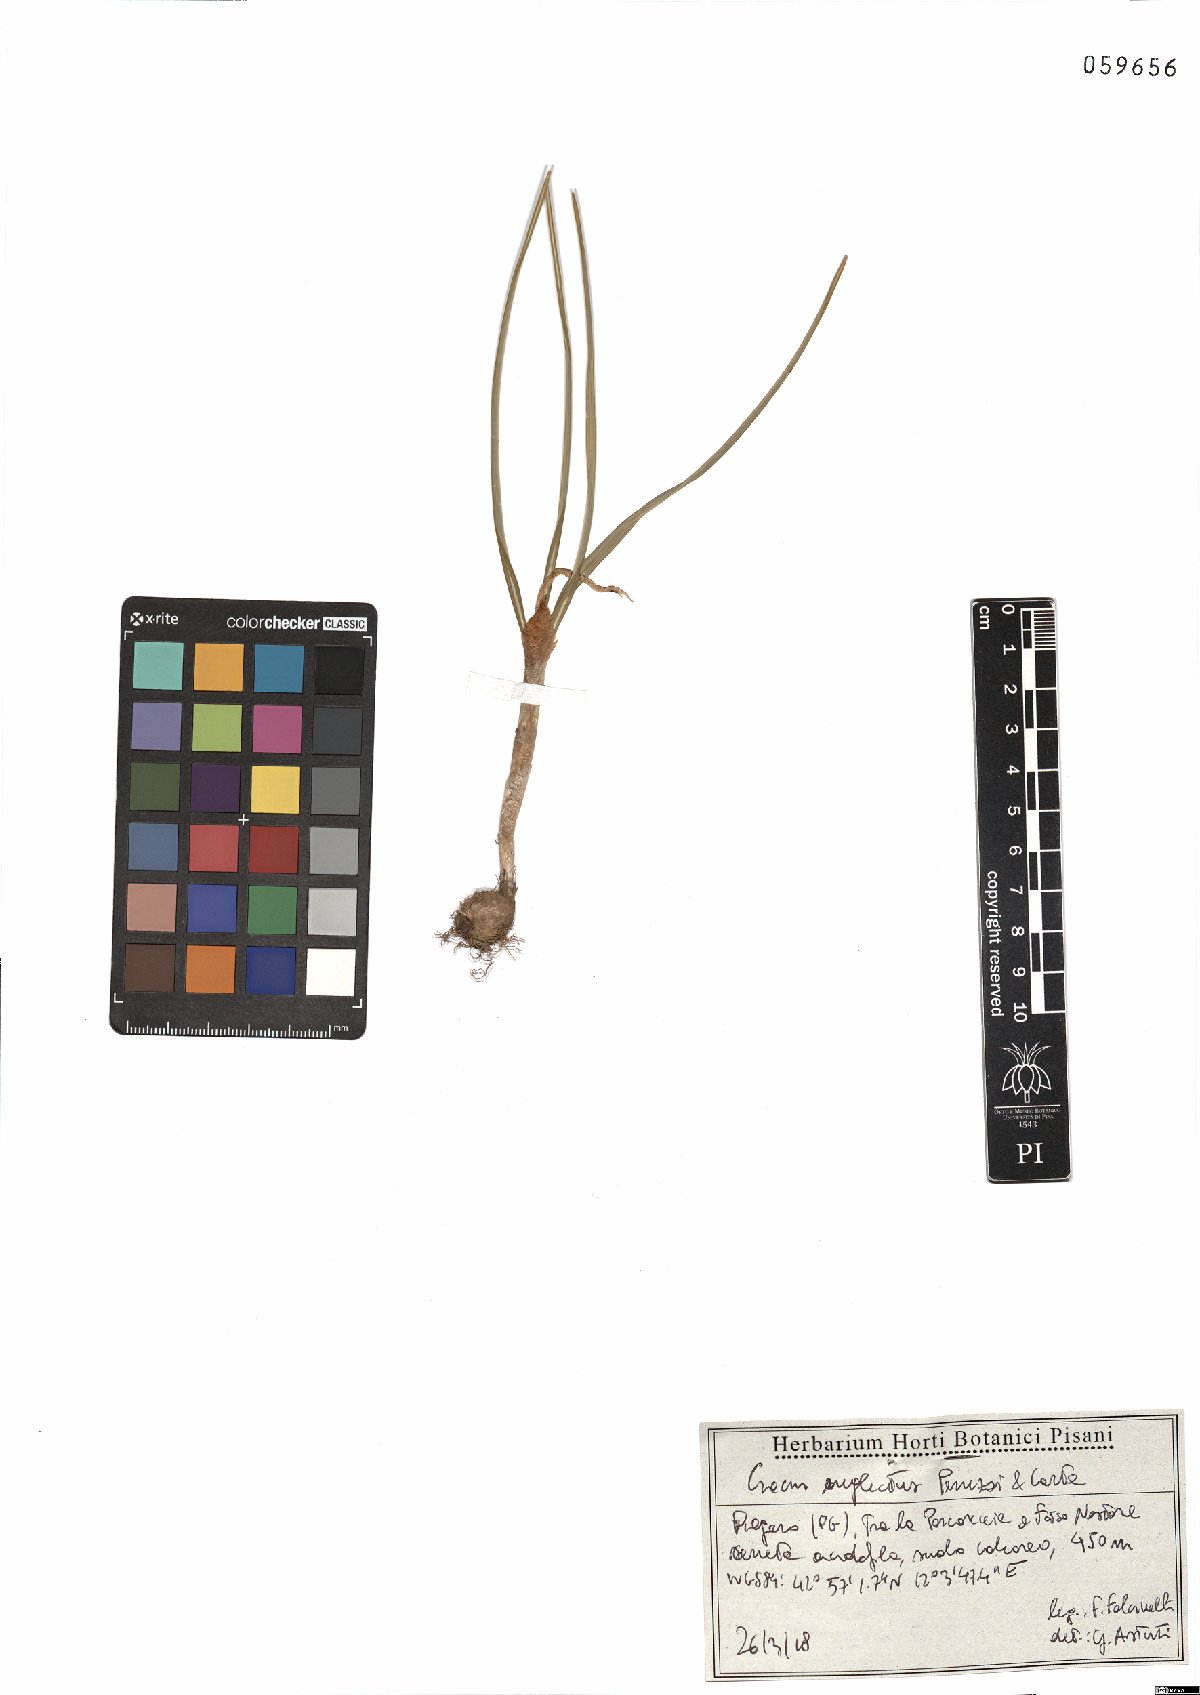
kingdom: Plantae
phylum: Tracheophyta
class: Liliopsida
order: Asparagales
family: Iridaceae
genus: Crocus
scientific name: Crocus neglectus
